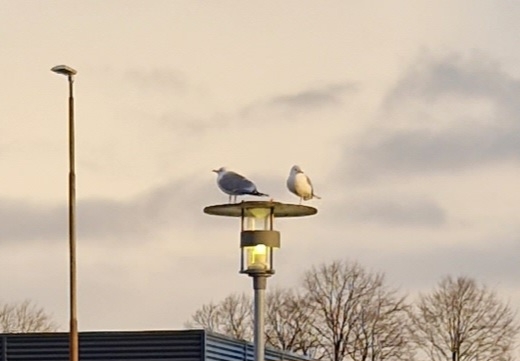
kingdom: Animalia
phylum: Chordata
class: Aves
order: Charadriiformes
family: Laridae
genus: Larus
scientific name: Larus canus
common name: Stormmåge
